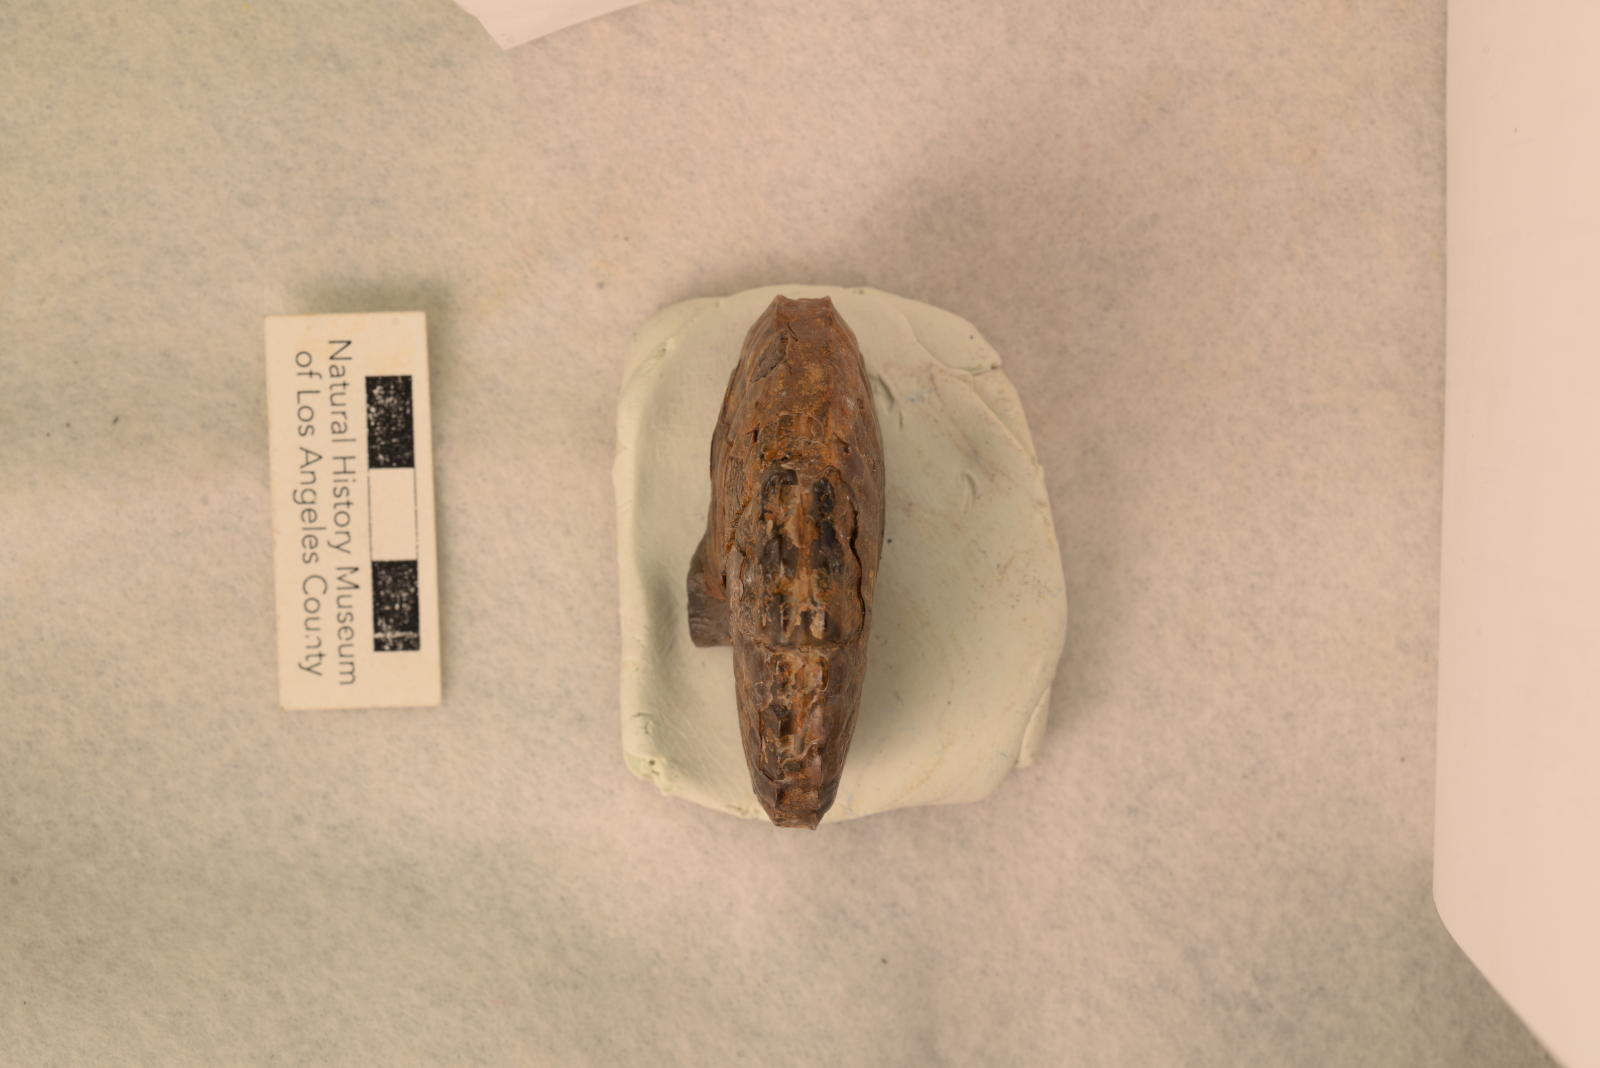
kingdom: Animalia
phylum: Mollusca
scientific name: Mollusca
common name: Mollusca
